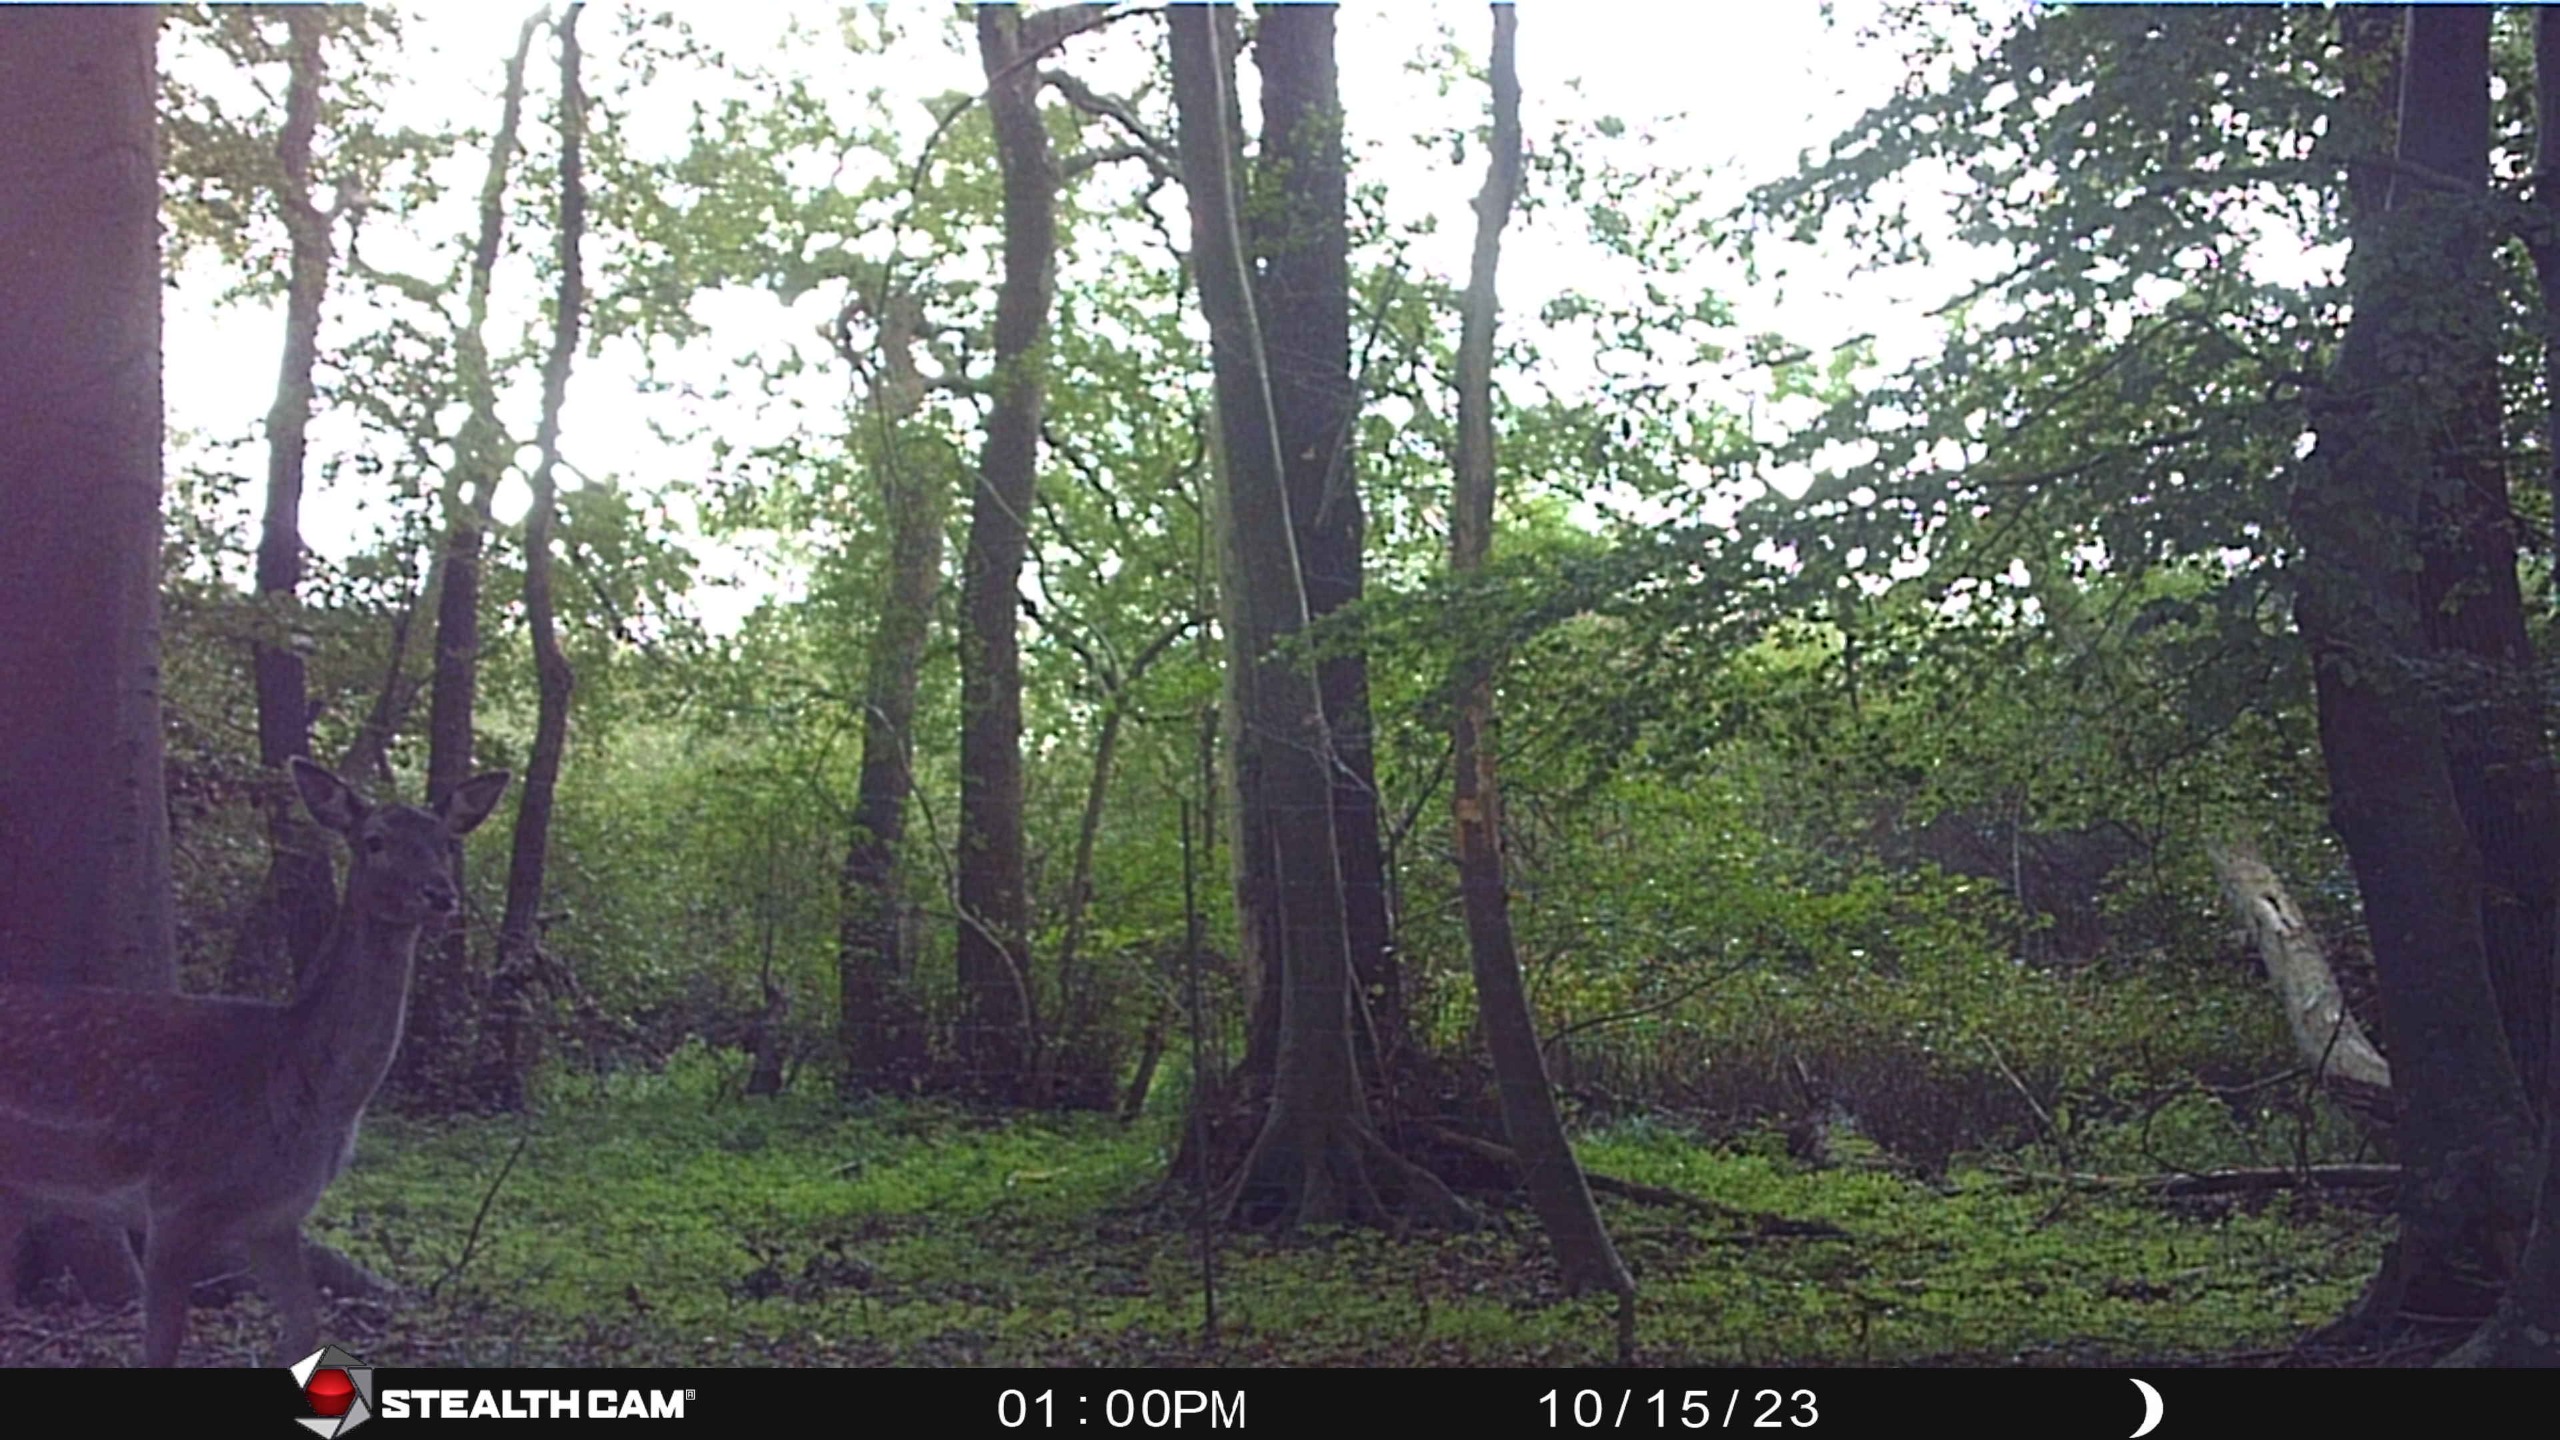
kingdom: Animalia
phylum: Chordata
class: Mammalia
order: Artiodactyla
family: Cervidae
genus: Dama
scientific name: Dama dama
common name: Dådyr
